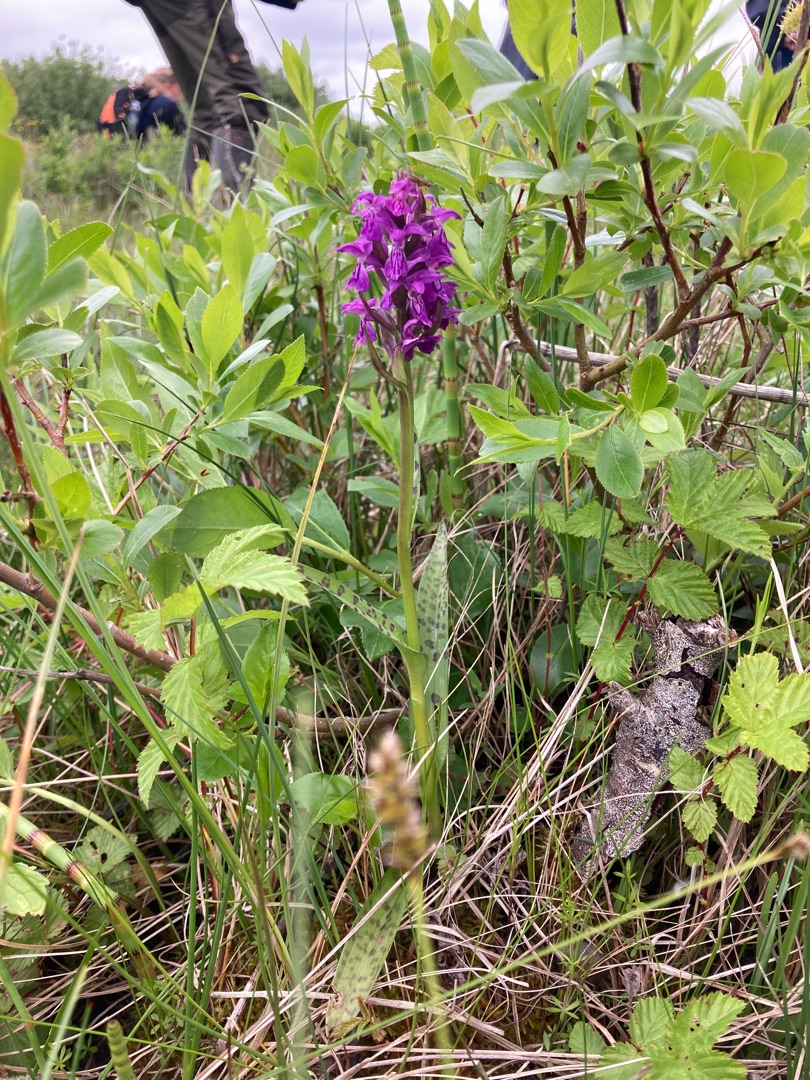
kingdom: Plantae
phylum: Tracheophyta
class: Liliopsida
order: Asparagales
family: Orchidaceae
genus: Dactylorhiza
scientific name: Dactylorhiza majalis
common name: Maj-gøgeurt
